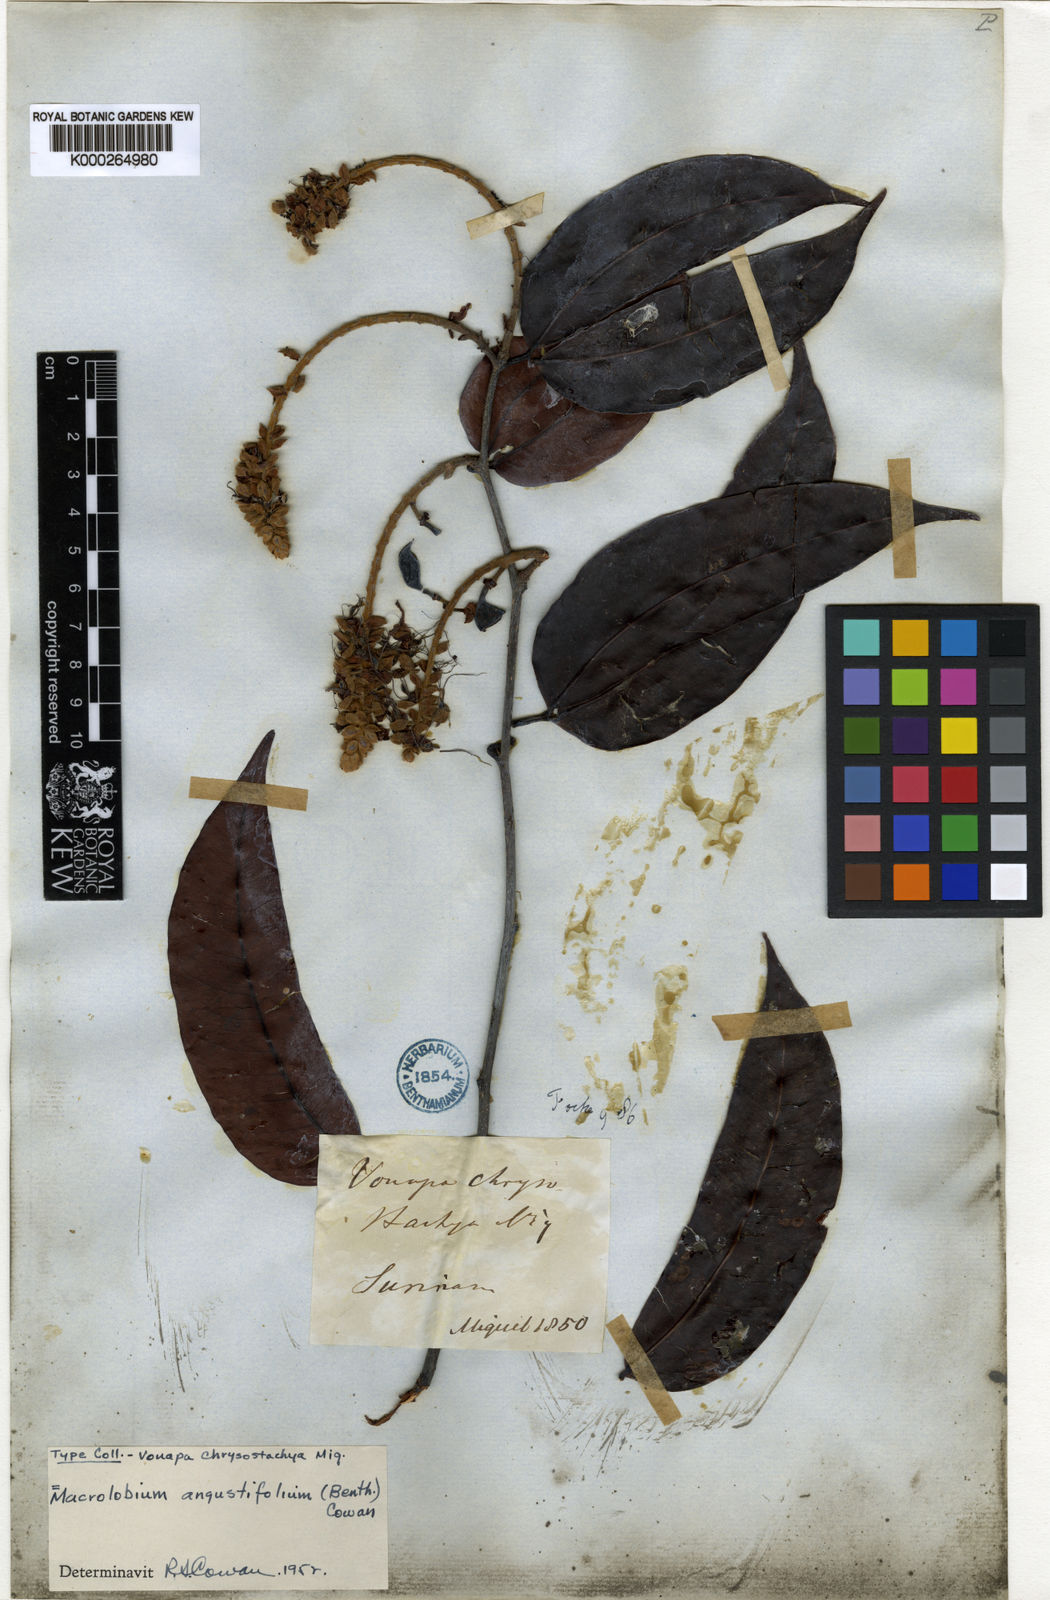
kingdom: Plantae
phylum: Tracheophyta
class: Magnoliopsida
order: Fabales
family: Fabaceae
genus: Macrolobium
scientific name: Macrolobium angustifolium
